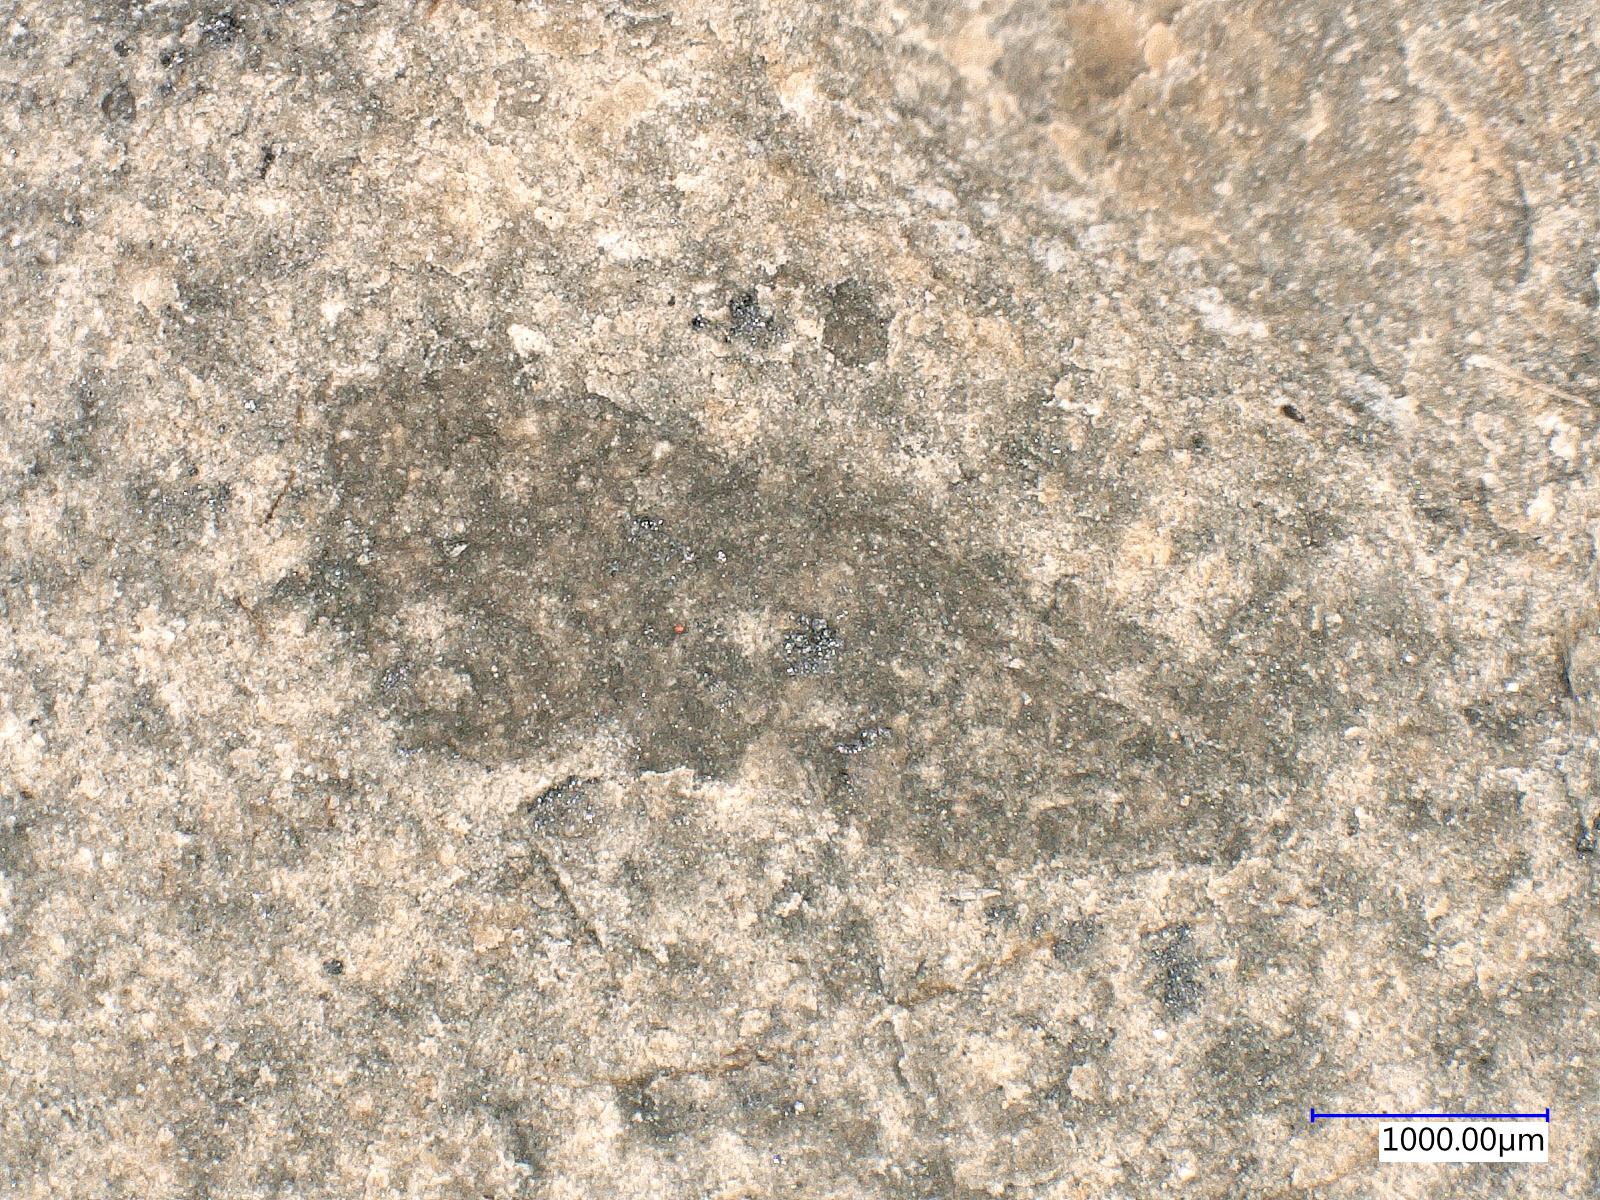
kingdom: Animalia
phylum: Arthropoda
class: Insecta
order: Orthoptera
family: Locustopsidae
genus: Locustopsis
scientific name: Locustopsis
